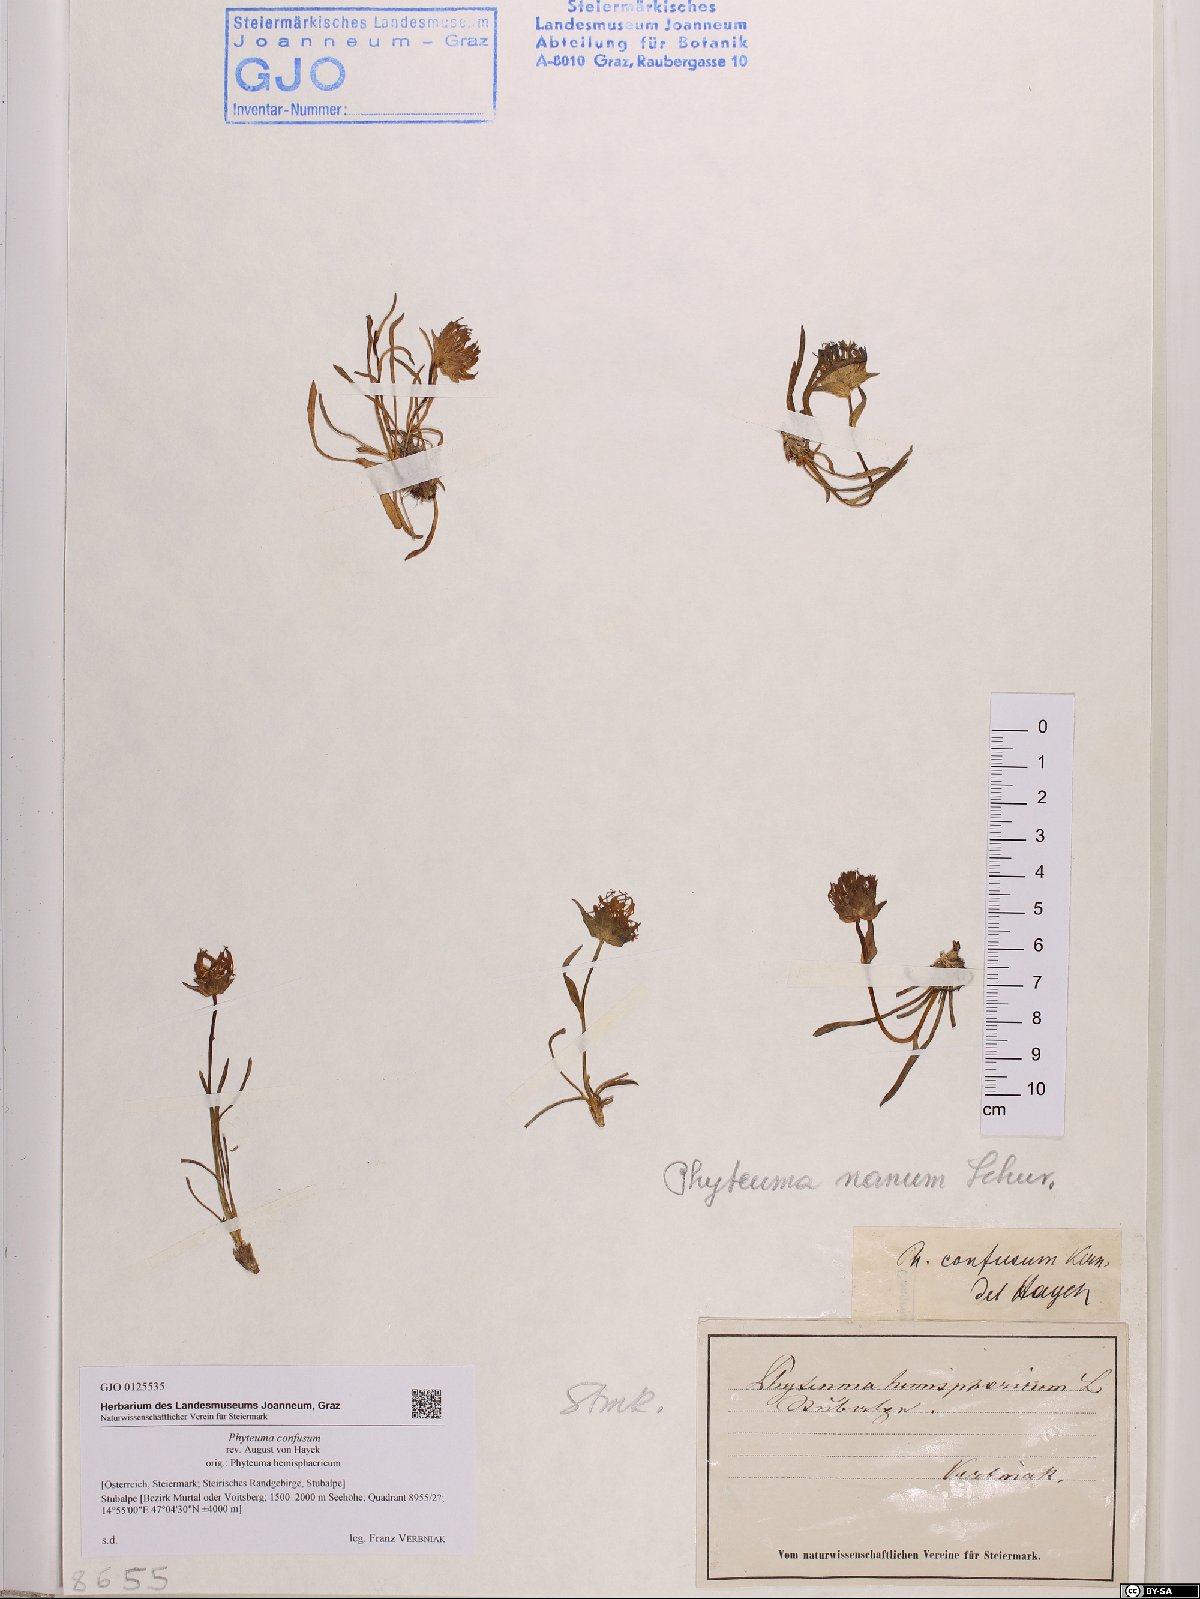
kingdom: Plantae
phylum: Tracheophyta
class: Magnoliopsida
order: Asterales
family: Campanulaceae
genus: Phyteuma
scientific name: Phyteuma confusum
